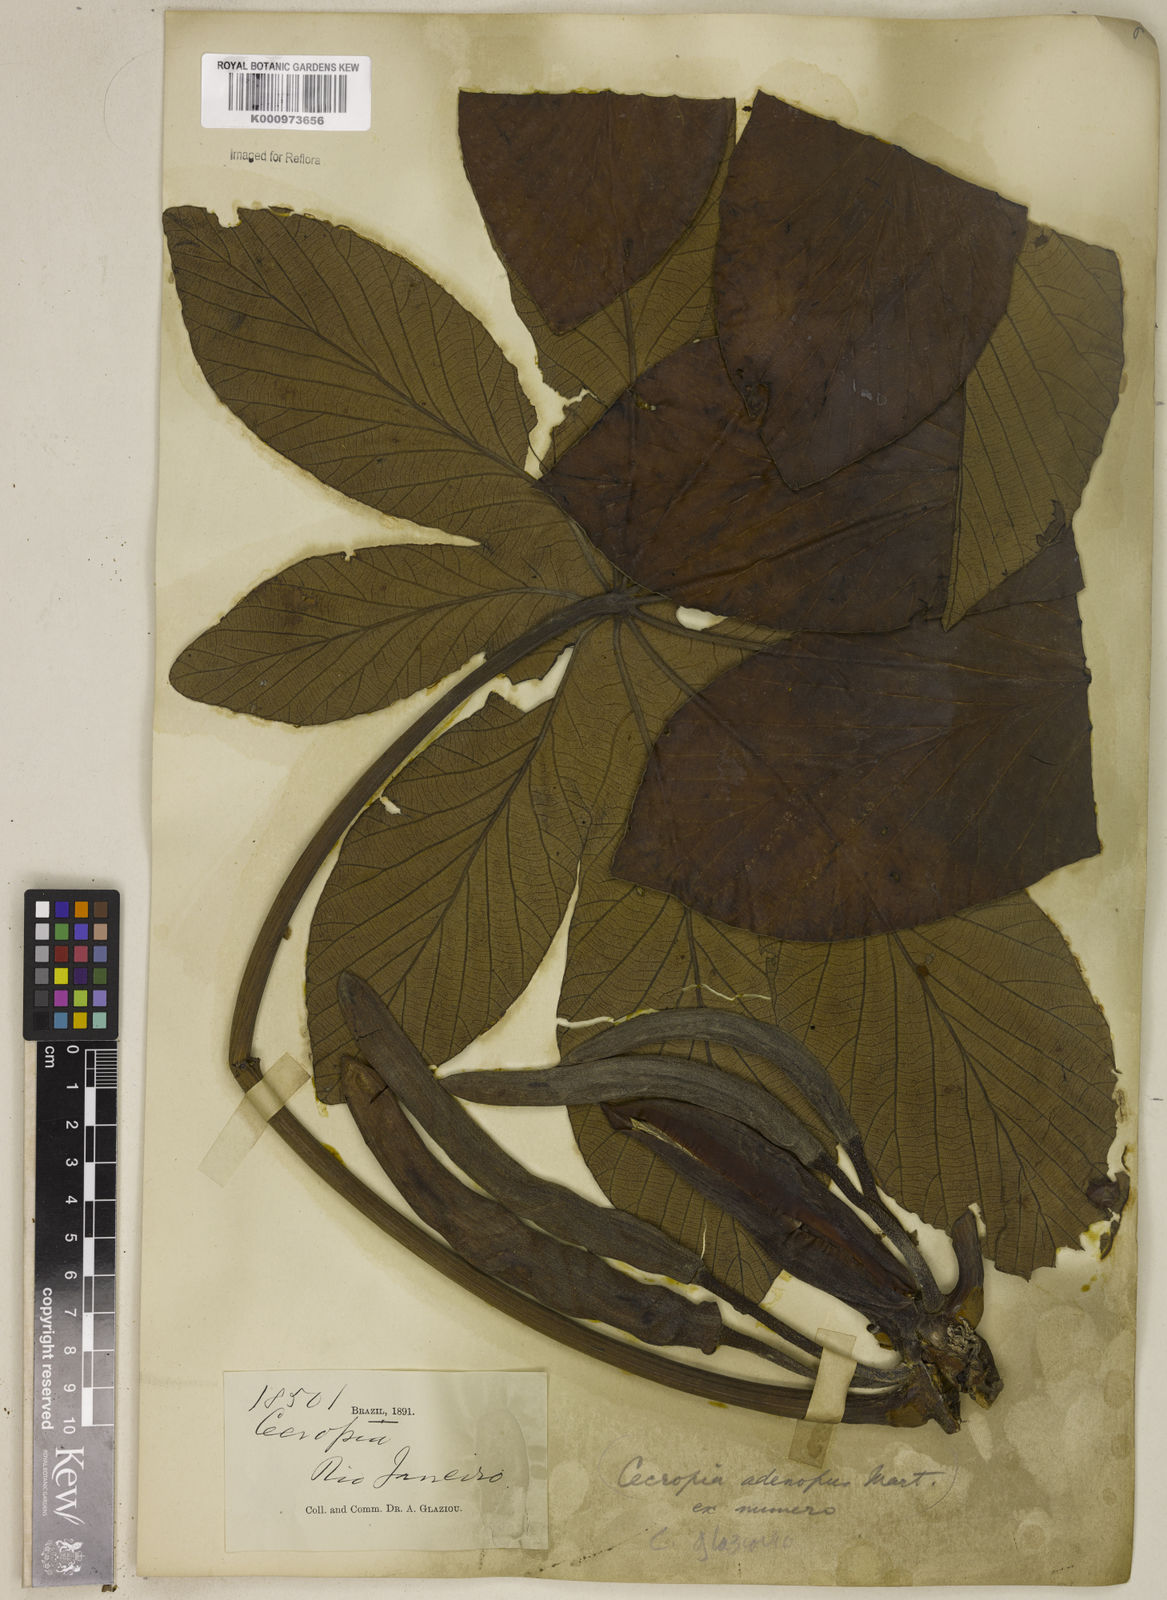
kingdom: Plantae
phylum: Tracheophyta
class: Magnoliopsida
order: Rosales
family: Urticaceae
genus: Cecropia
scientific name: Cecropia glaziovii
